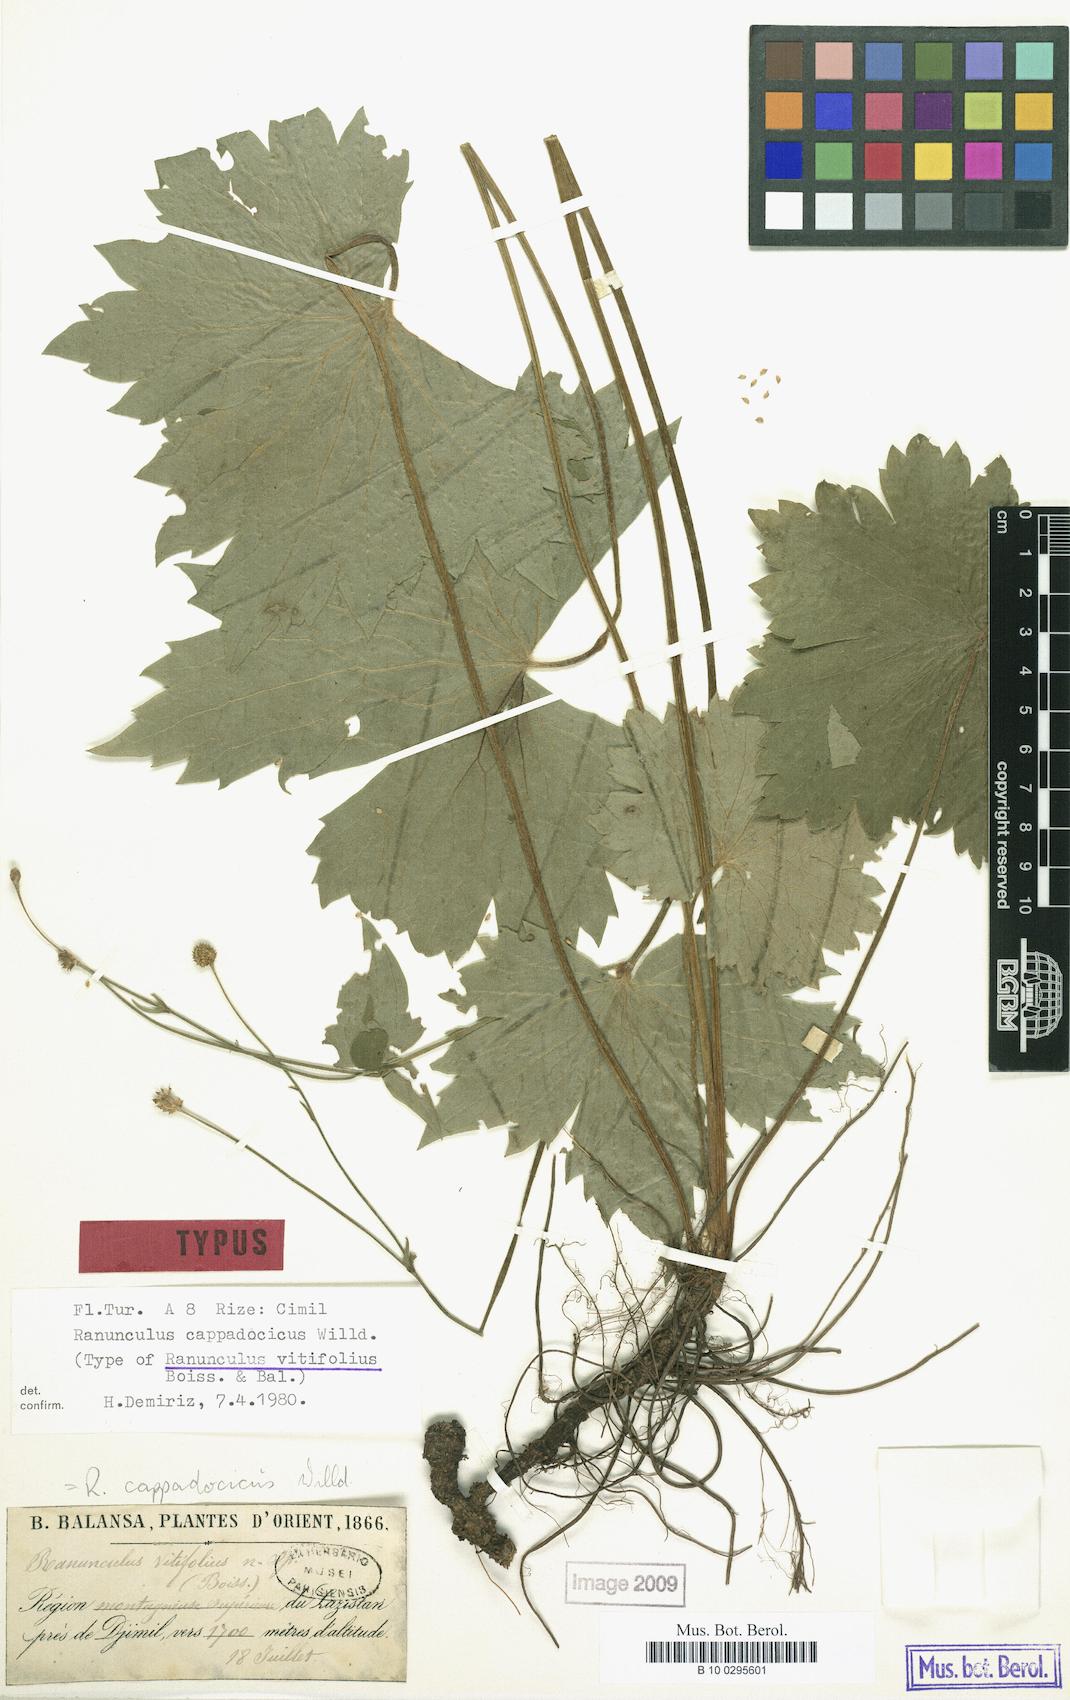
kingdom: Plantae
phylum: Tracheophyta
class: Magnoliopsida
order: Ranunculales
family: Ranunculaceae
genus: Ranunculus
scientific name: Ranunculus cappadocicus
